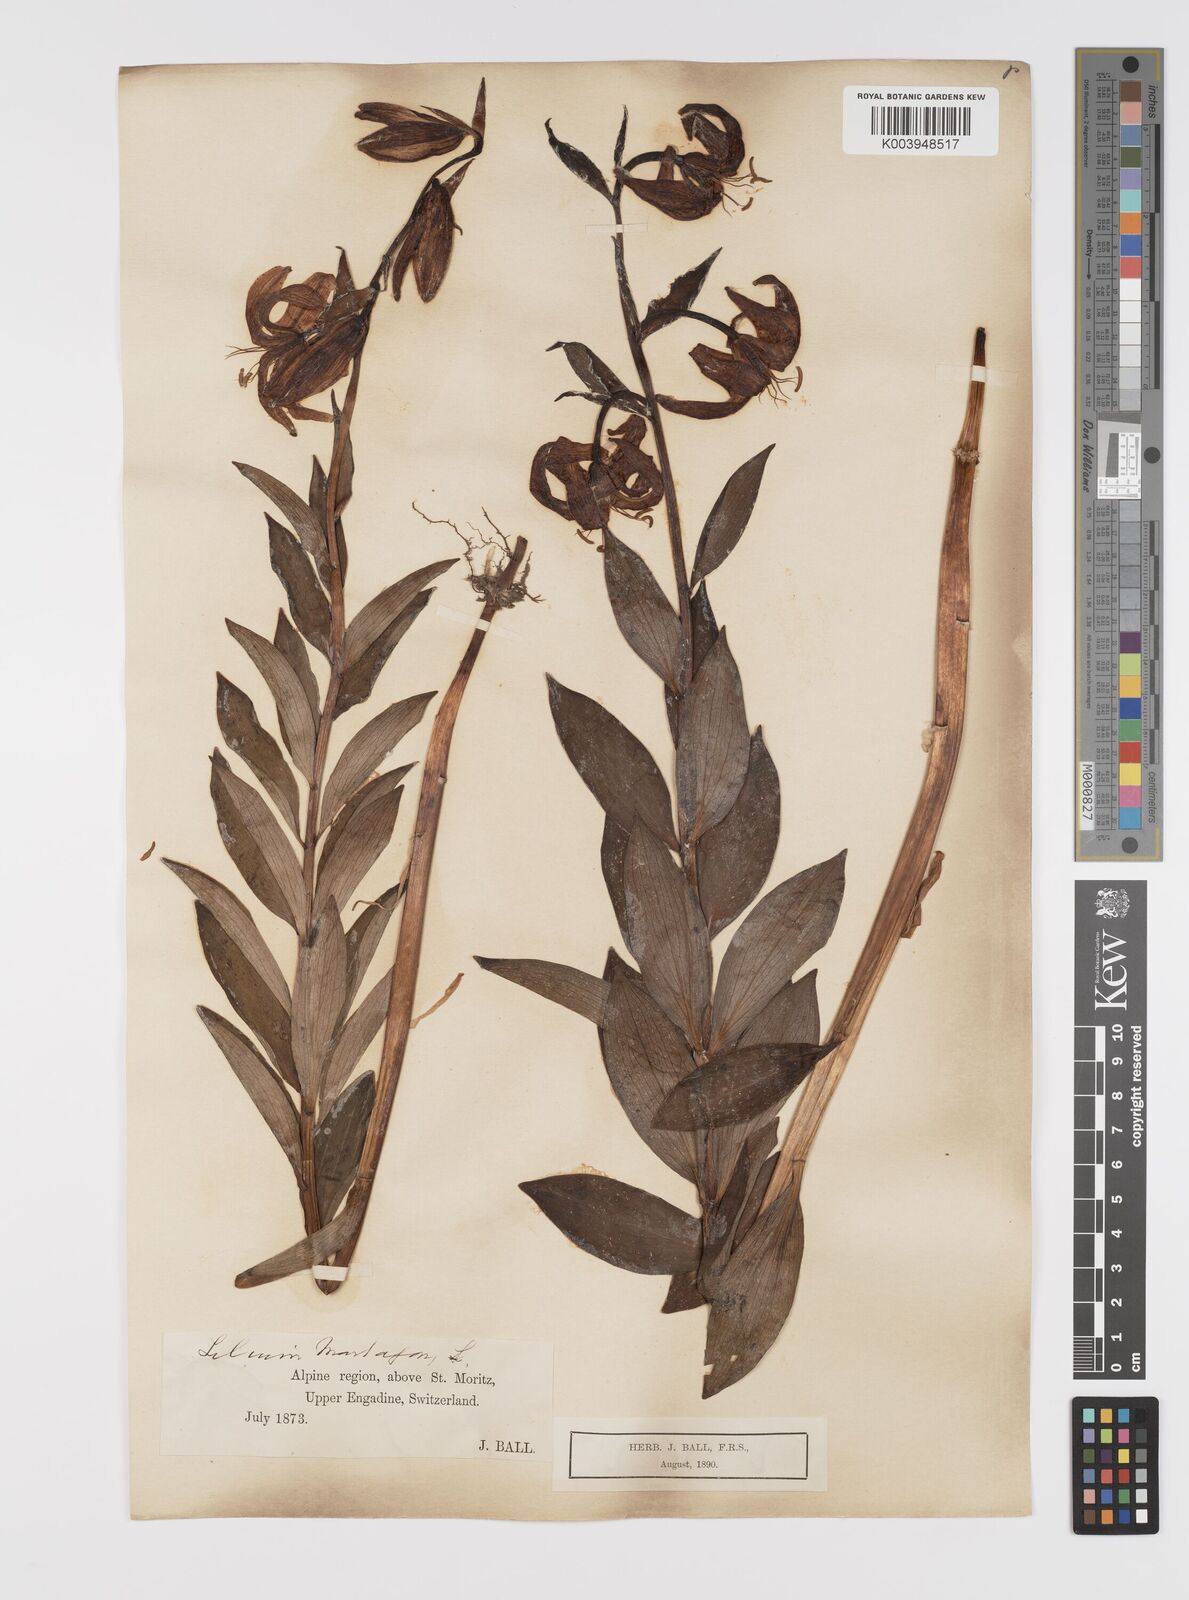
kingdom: Plantae
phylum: Tracheophyta
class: Liliopsida
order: Liliales
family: Liliaceae
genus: Lilium
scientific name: Lilium martagon
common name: Martagon lily
